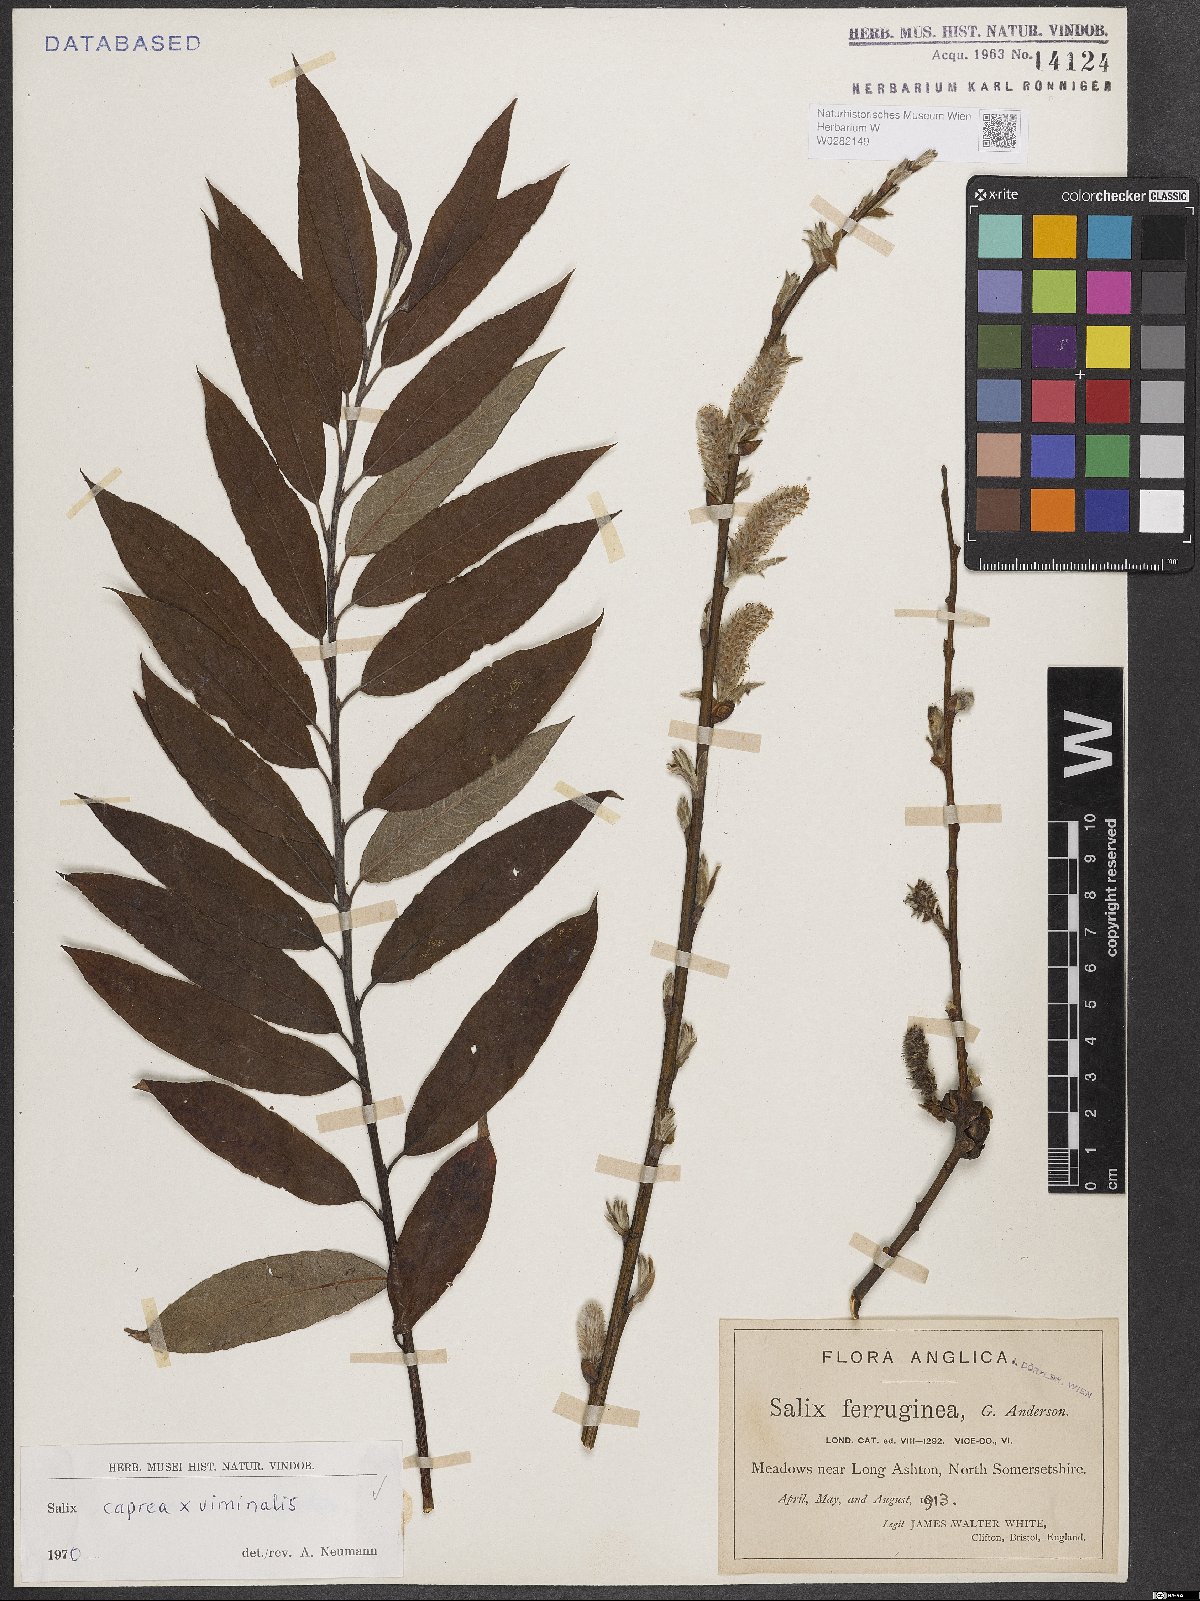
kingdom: Plantae
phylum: Tracheophyta
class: Magnoliopsida
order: Malpighiales
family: Salicaceae
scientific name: Salicaceae
